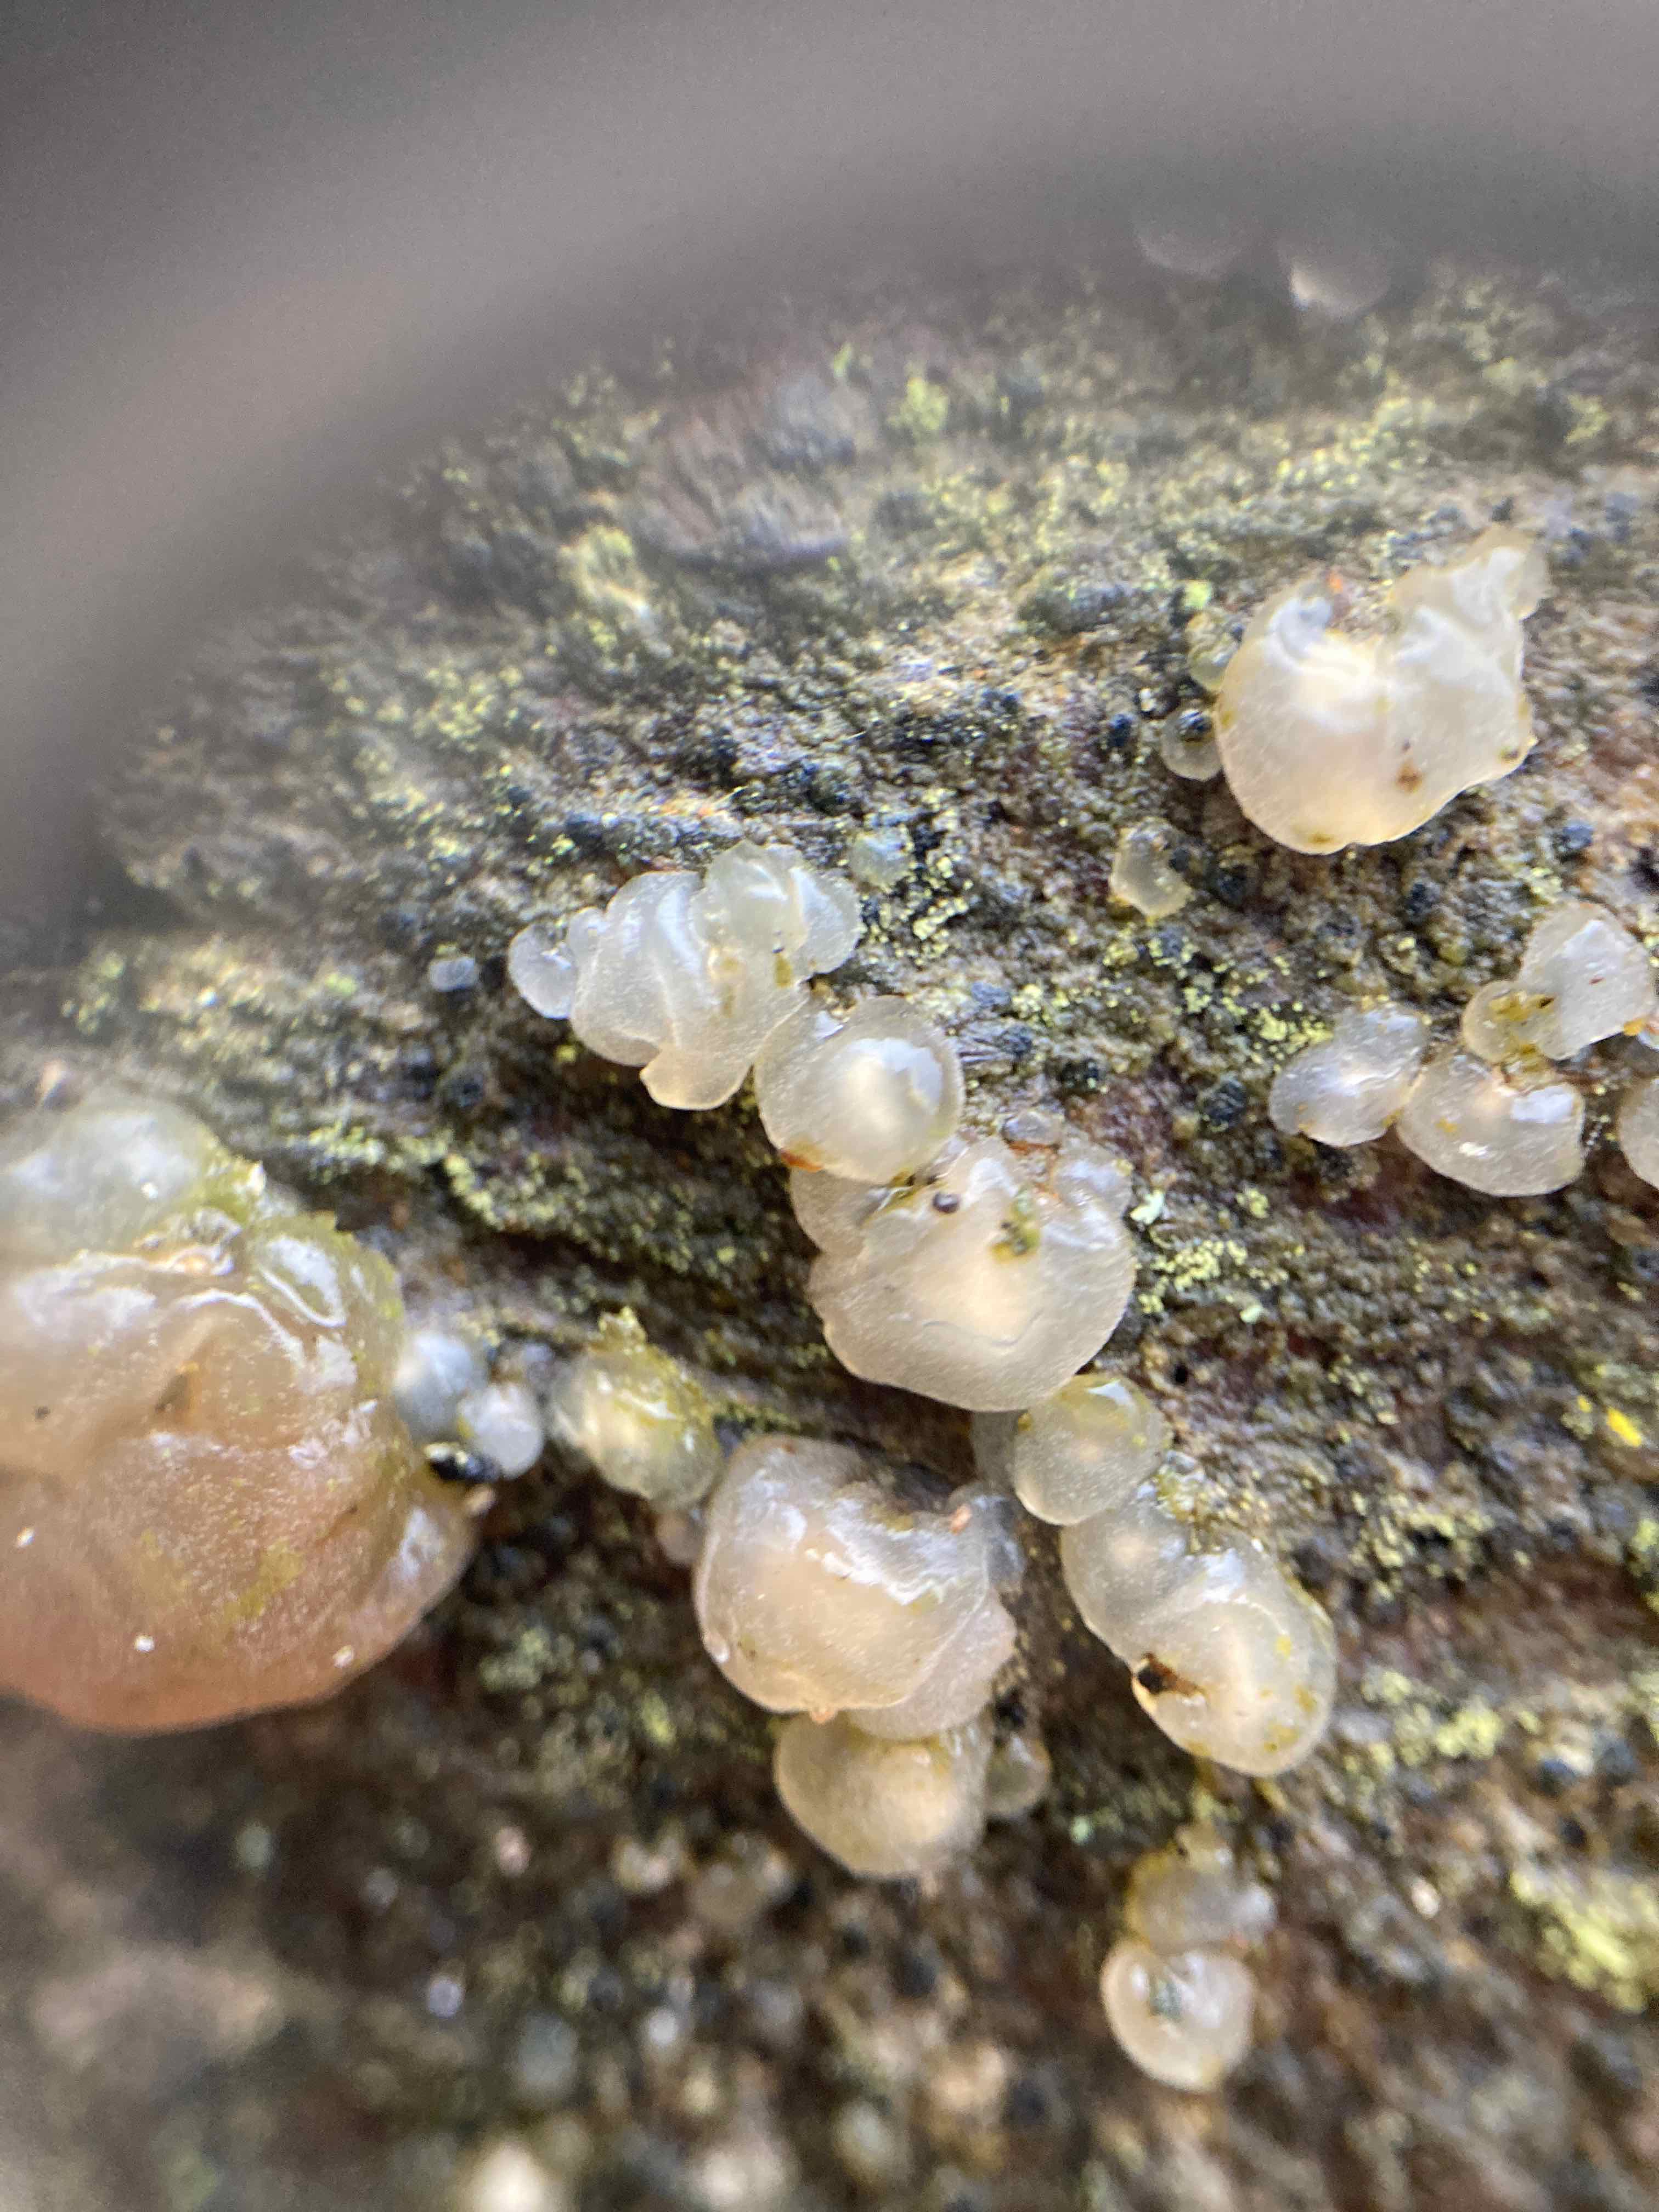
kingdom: Fungi
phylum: Basidiomycota
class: Agaricomycetes
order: Auriculariales
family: Hyaloriaceae
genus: Myxarium
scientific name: Myxarium nucleatum
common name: klar bævretop
